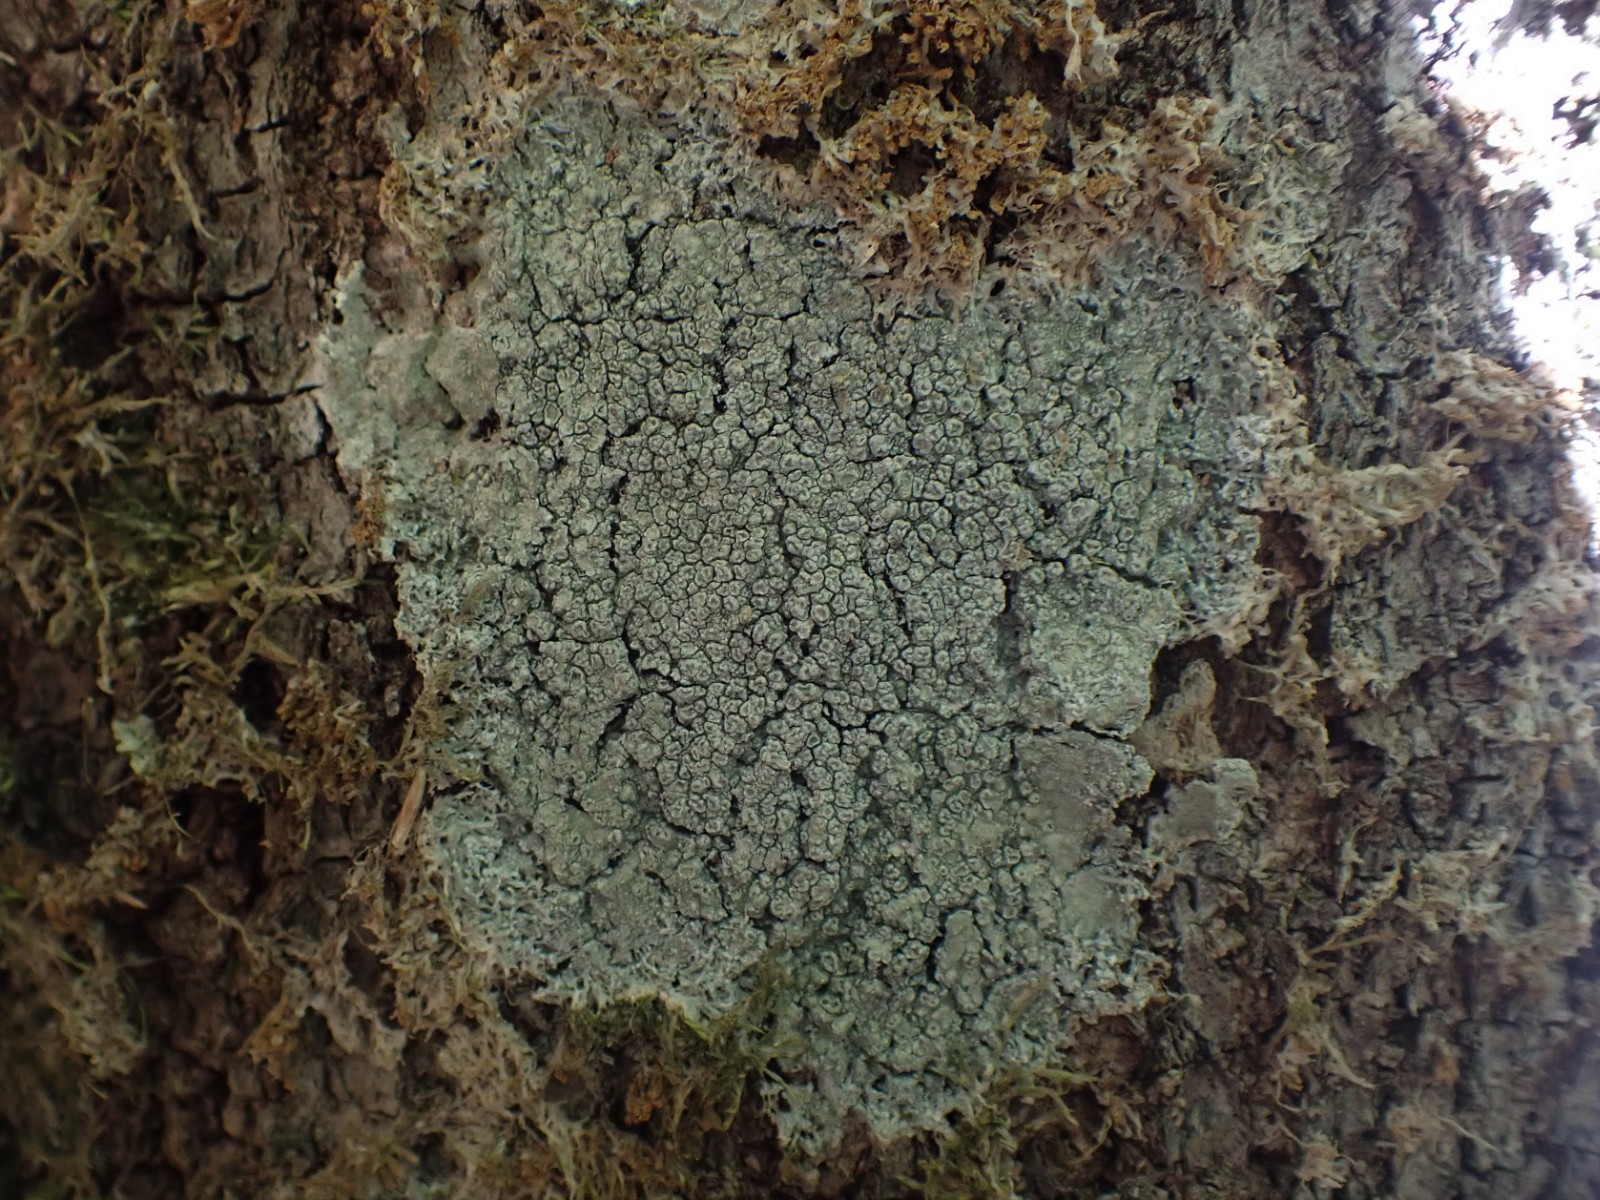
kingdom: Fungi
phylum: Ascomycota
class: Lecanoromycetes
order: Pertusariales
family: Pertusariaceae
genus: Pertusaria
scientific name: Pertusaria hymenea
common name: åben prikvortelav
